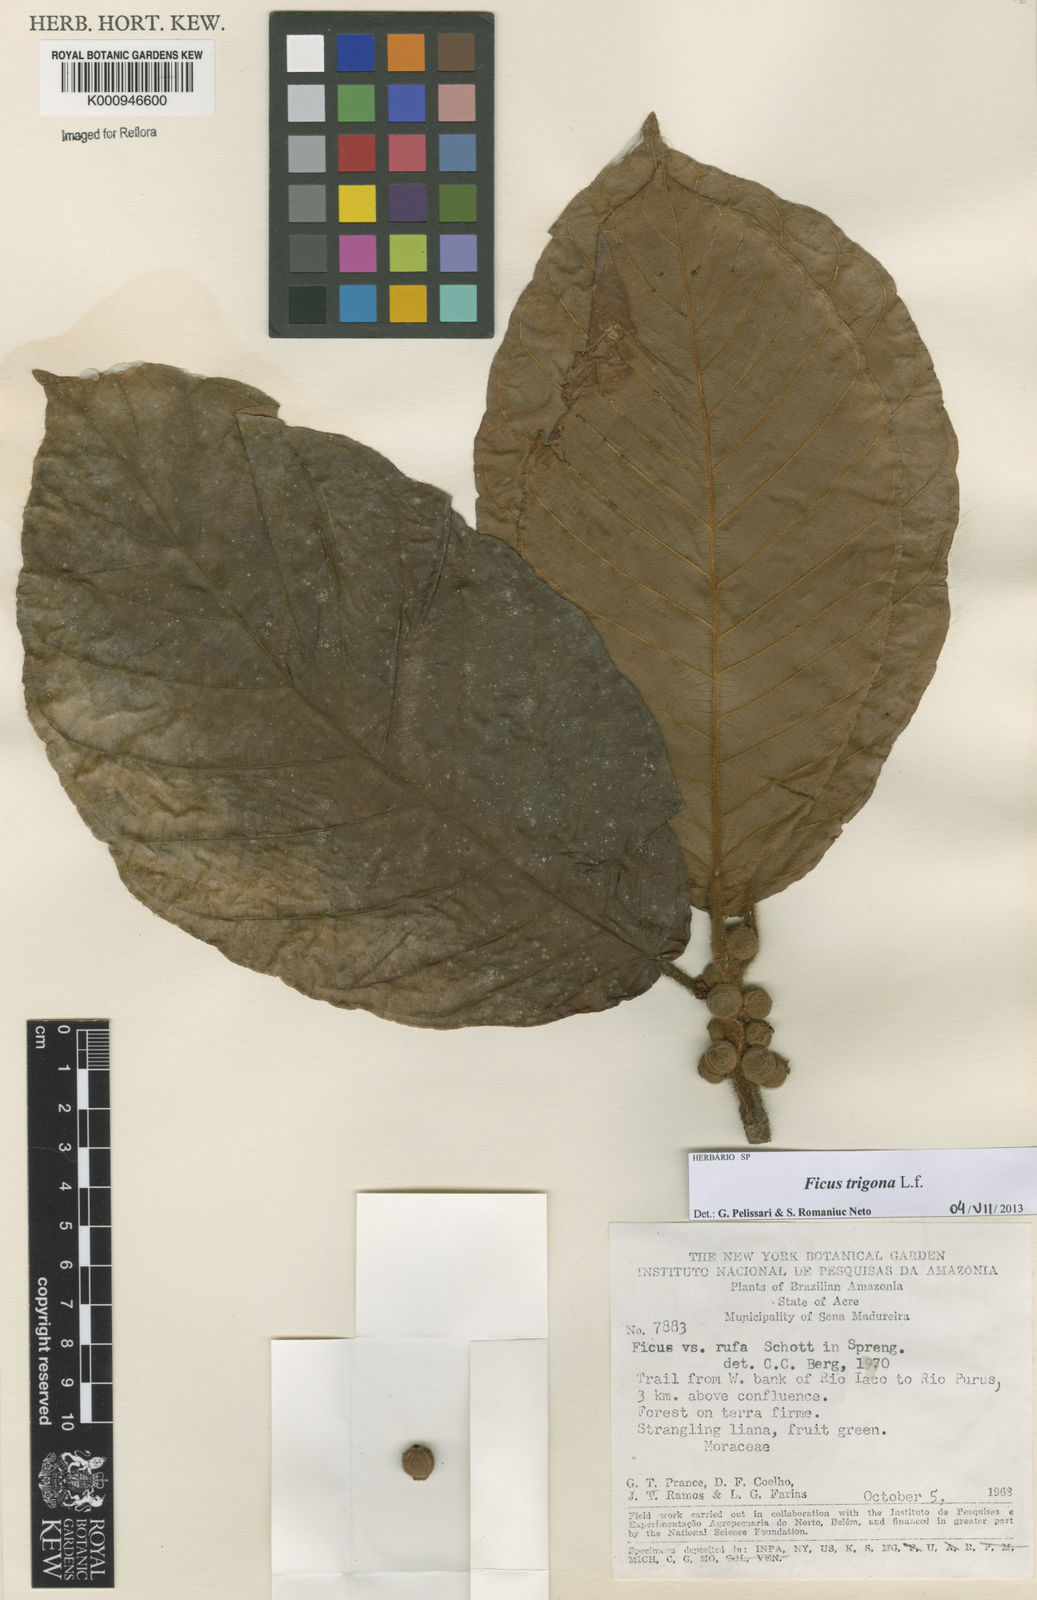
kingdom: Plantae
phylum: Tracheophyta
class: Magnoliopsida
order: Rosales
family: Moraceae
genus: Ficus
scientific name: Ficus trigona
